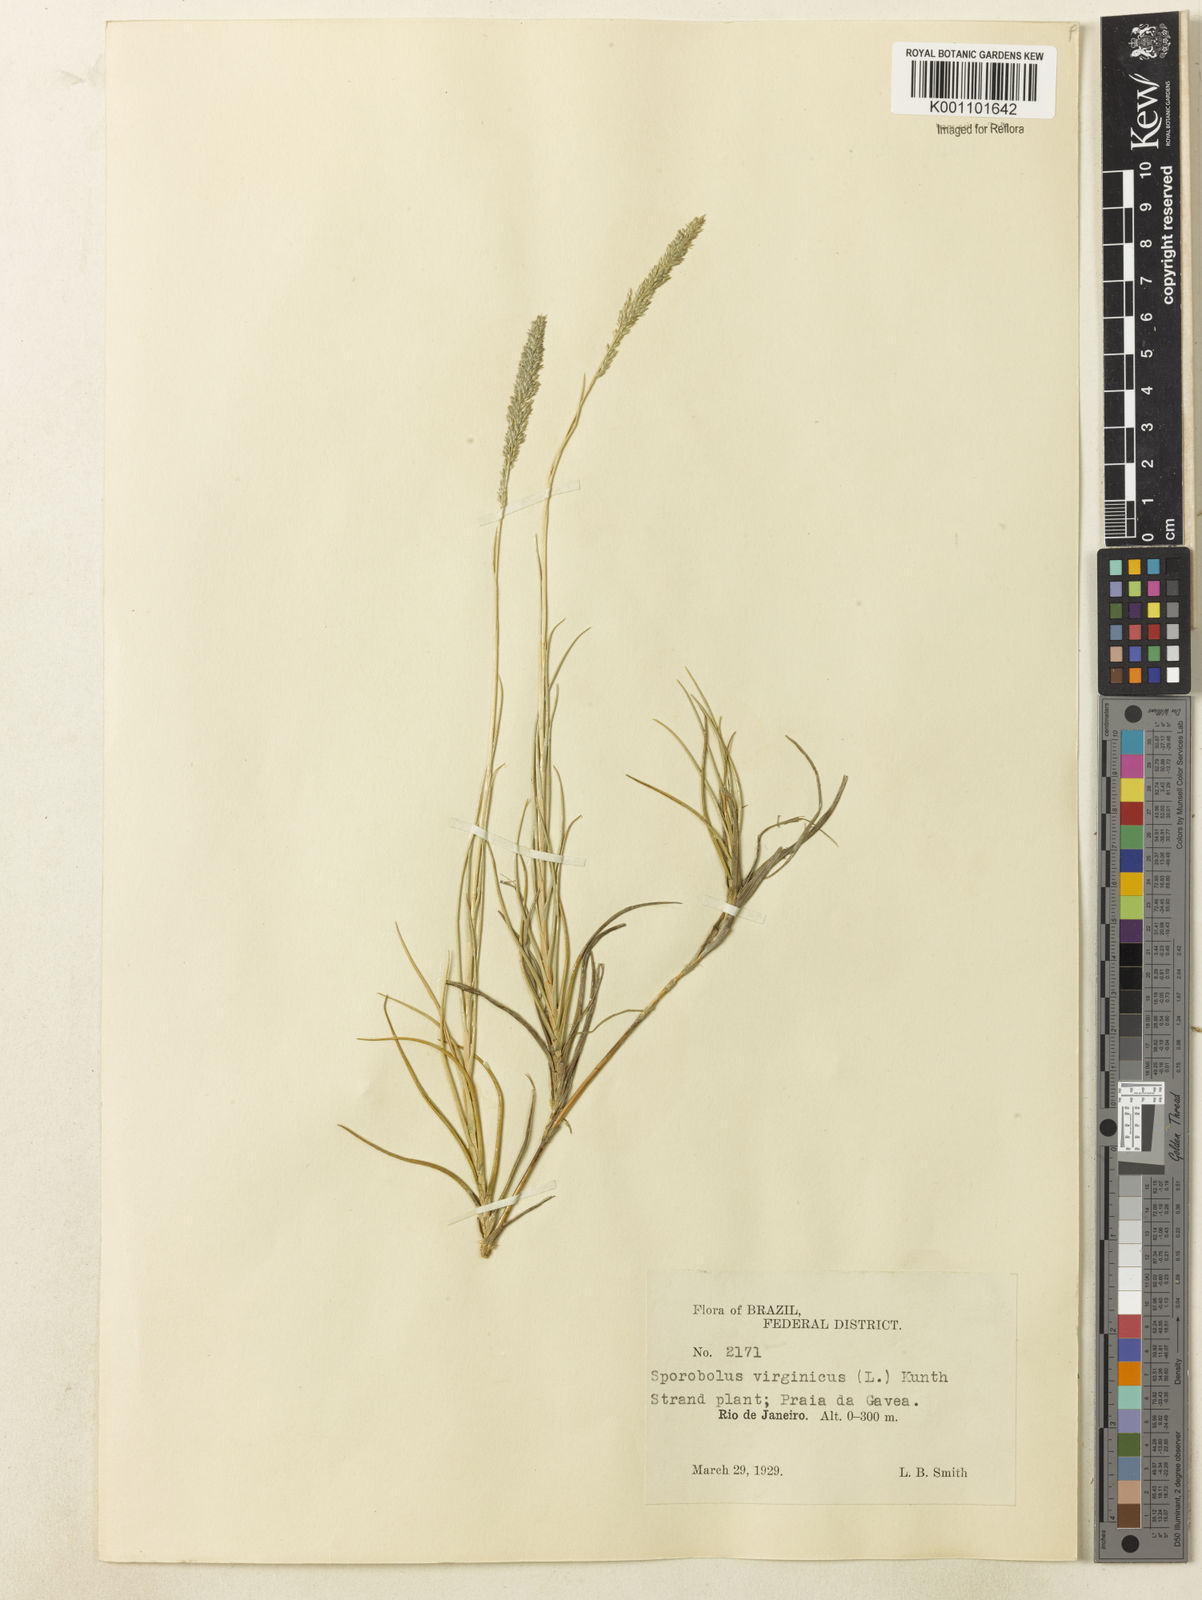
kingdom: Plantae
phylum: Tracheophyta
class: Liliopsida
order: Poales
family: Poaceae
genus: Sporobolus
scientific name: Sporobolus virginicus
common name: Beach dropseed
